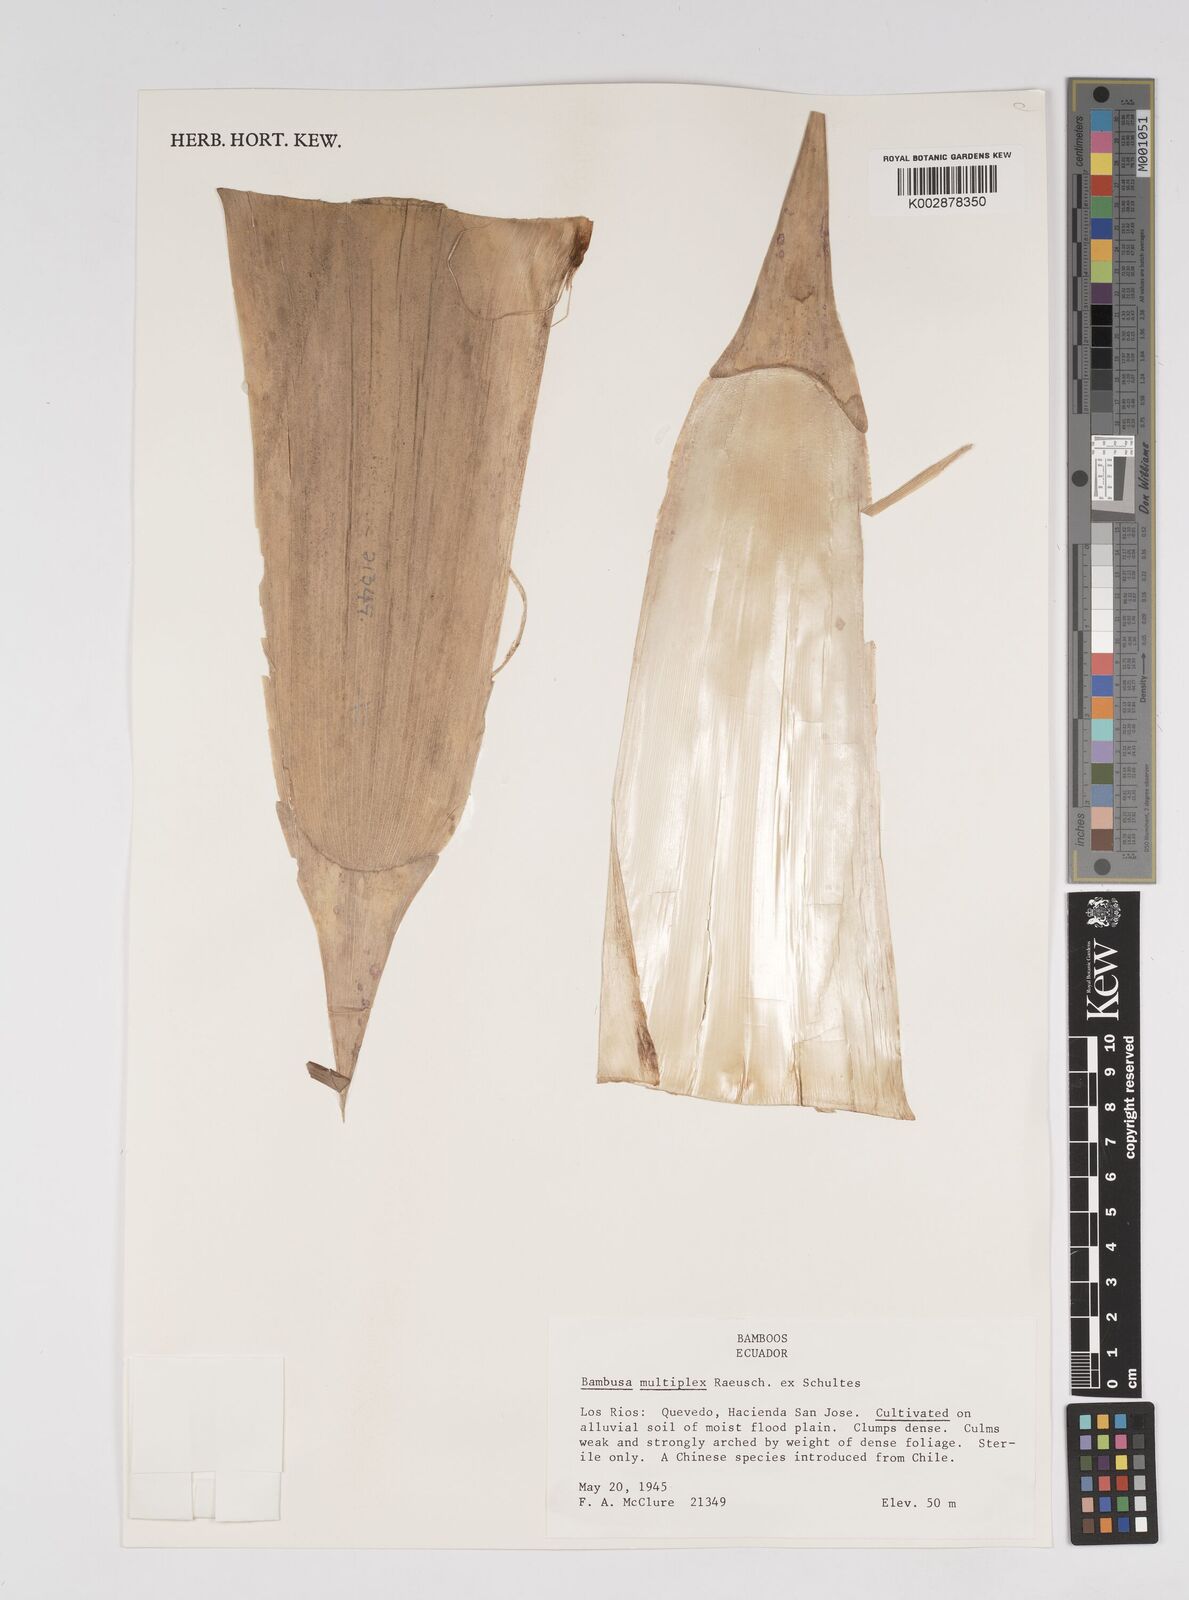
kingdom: Plantae
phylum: Tracheophyta
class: Liliopsida
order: Poales
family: Poaceae
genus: Bambusa
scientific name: Bambusa multiplex
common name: Hedge bamboo
